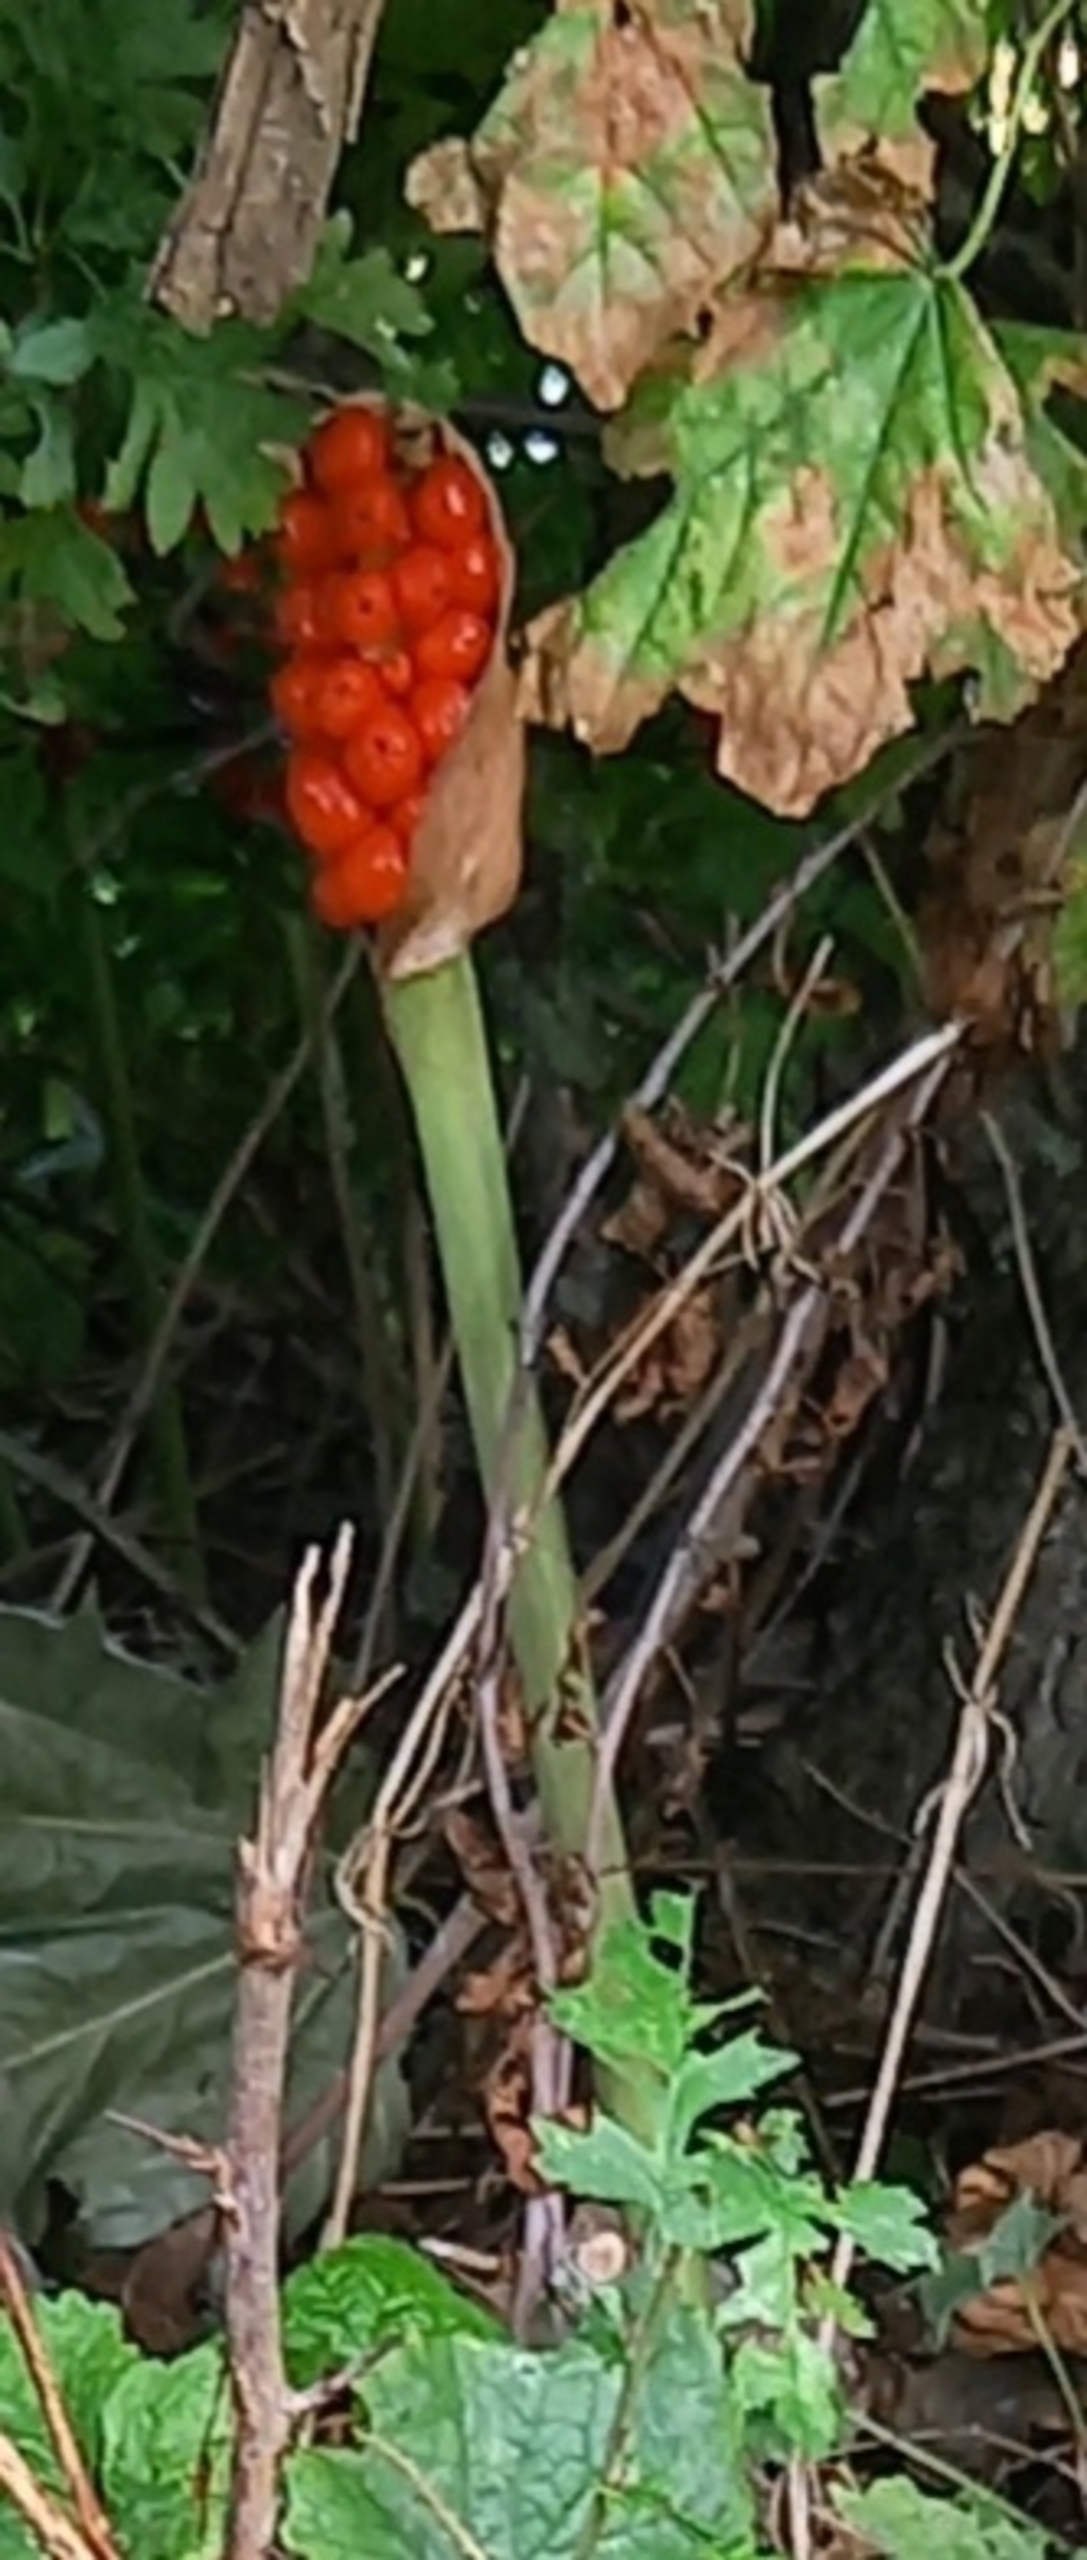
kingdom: Plantae
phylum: Tracheophyta
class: Liliopsida
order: Alismatales
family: Araceae
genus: Arum
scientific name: Arum
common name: Arumslægten
